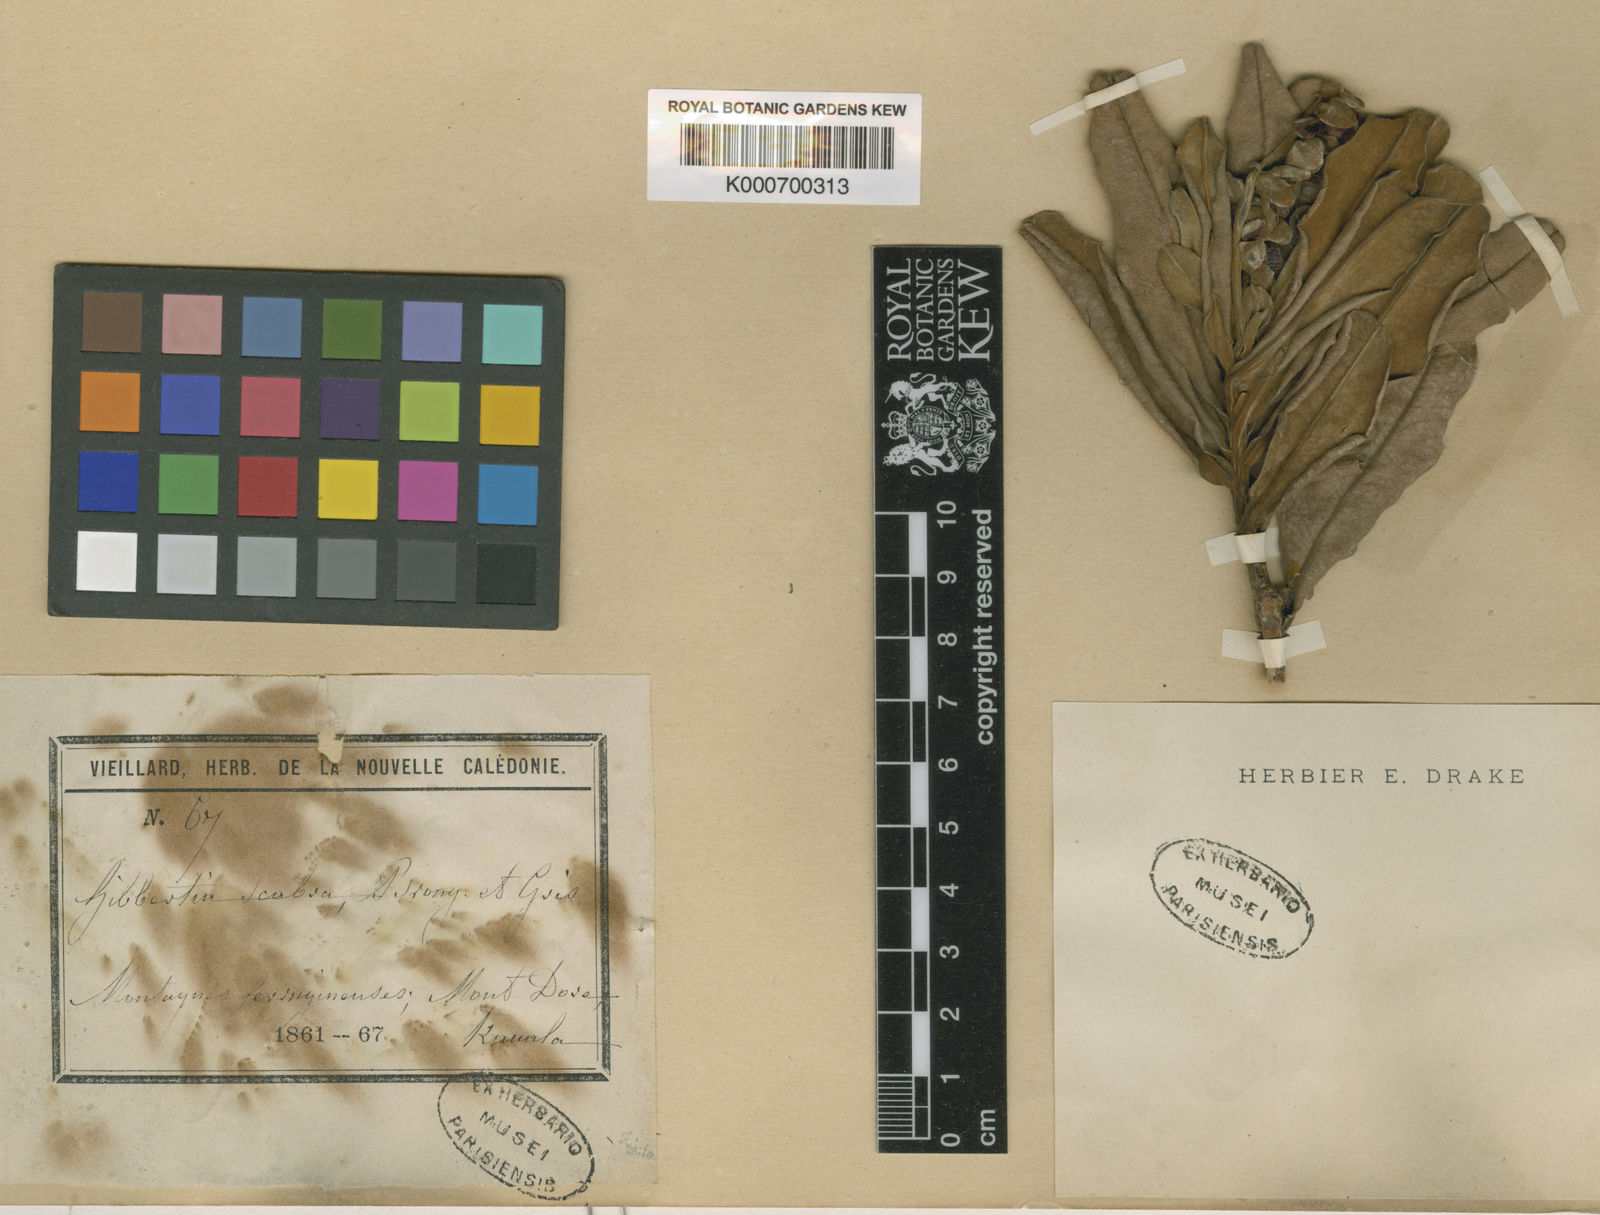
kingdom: Plantae
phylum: Tracheophyta
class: Magnoliopsida
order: Dilleniales
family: Dilleniaceae
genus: Hibbertia
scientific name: Hibbertia trachyphylla
